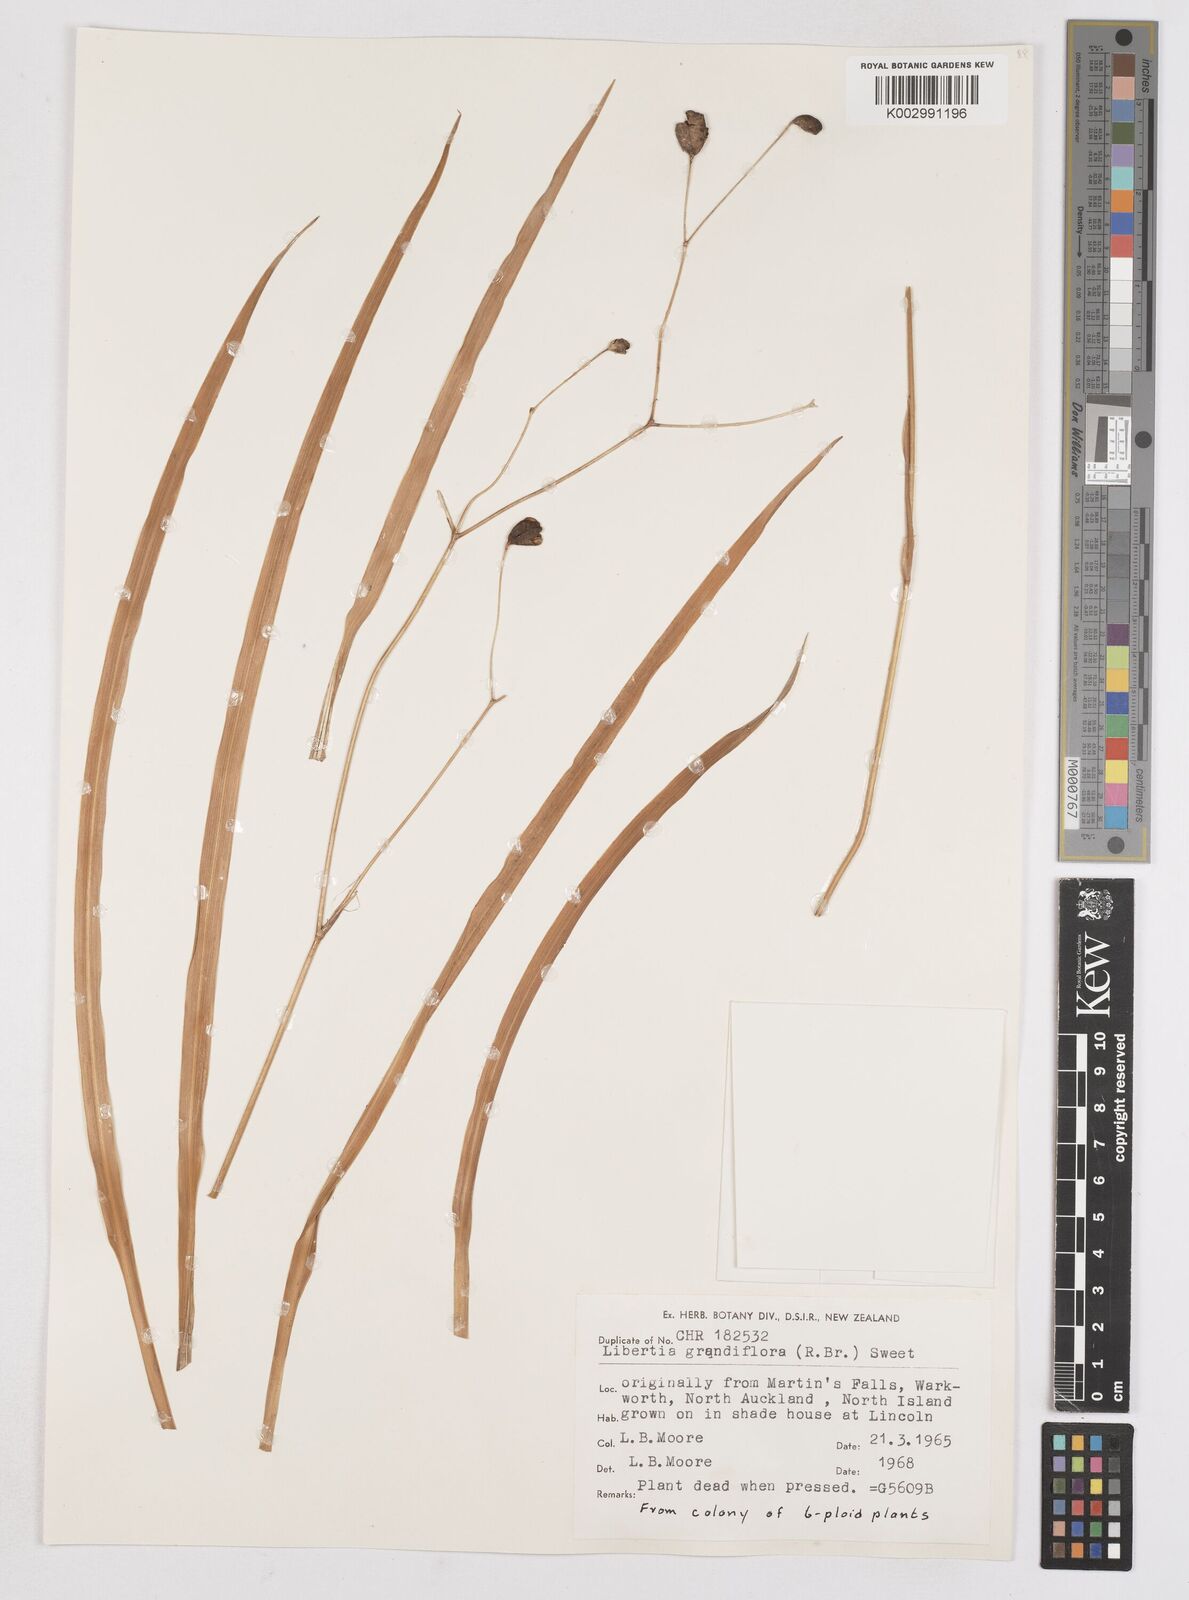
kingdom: Plantae
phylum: Tracheophyta
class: Liliopsida
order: Asparagales
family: Iridaceae
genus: Libertia
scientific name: Libertia grandiflora
